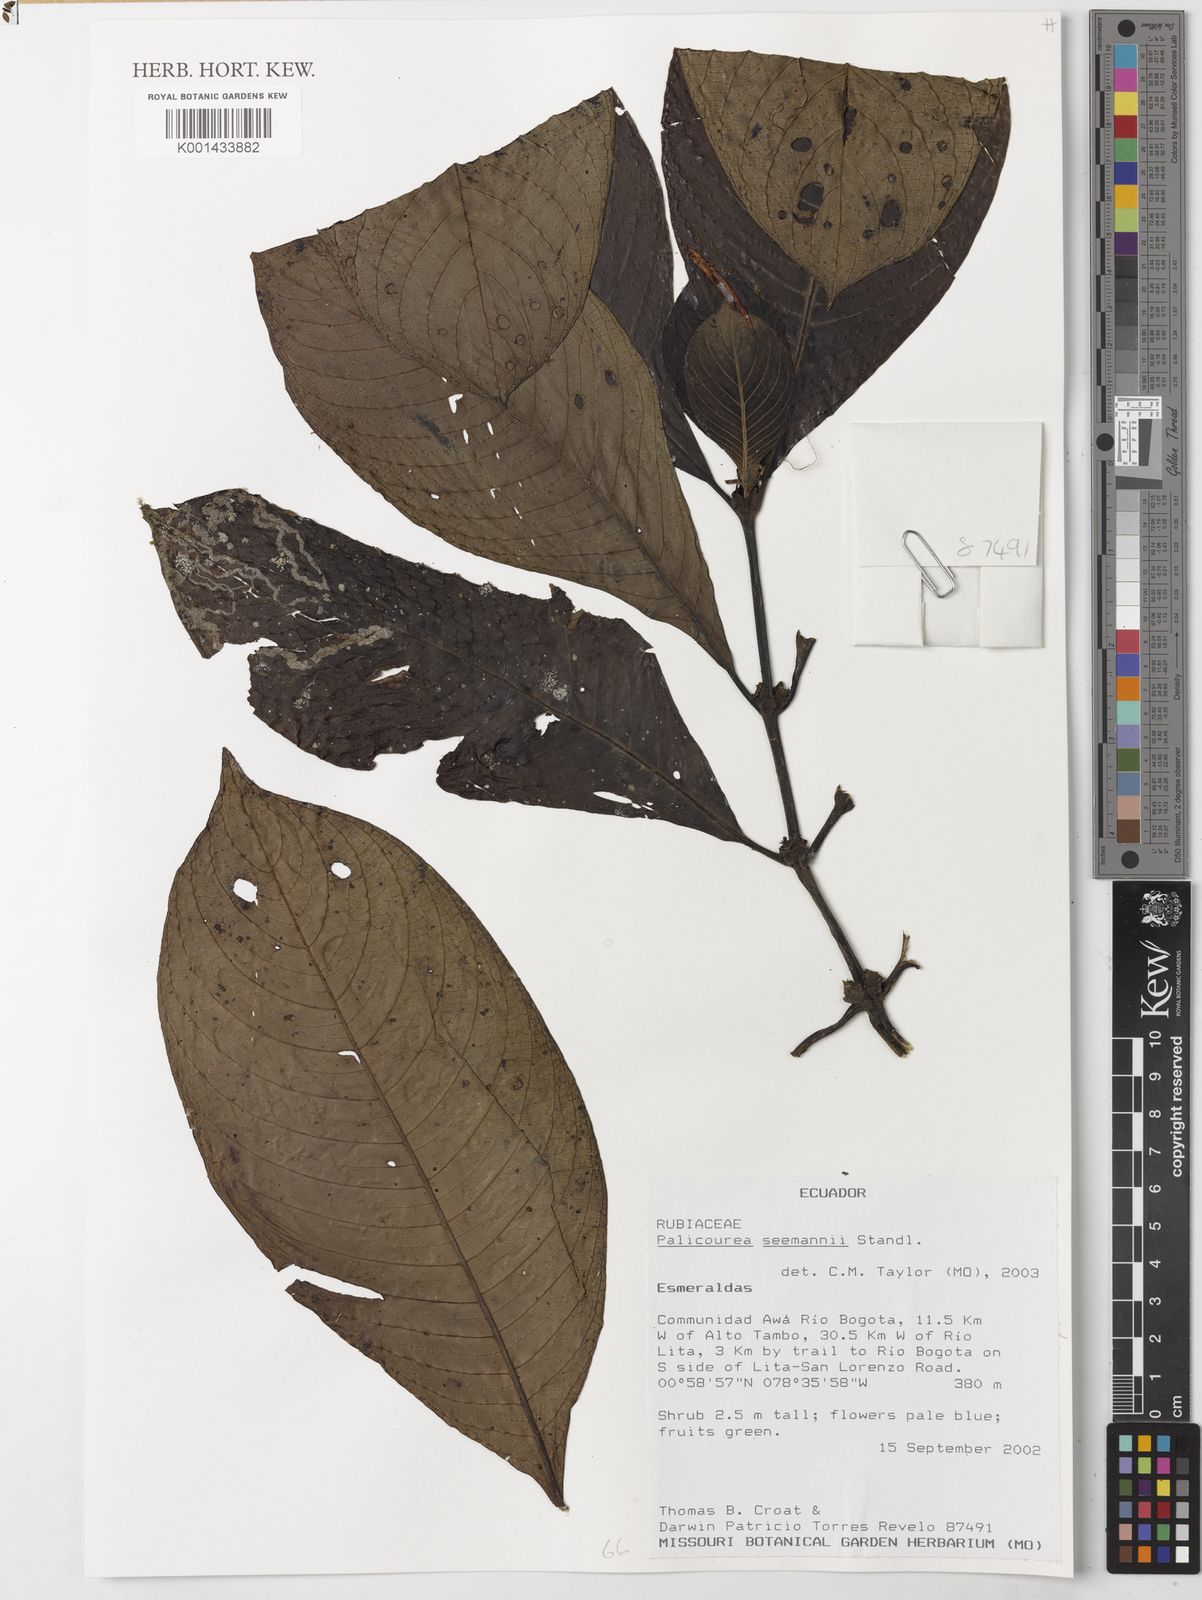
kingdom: Plantae
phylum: Tracheophyta
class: Magnoliopsida
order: Gentianales
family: Rubiaceae
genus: Ditrichanthus
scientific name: Ditrichanthus seemannii
